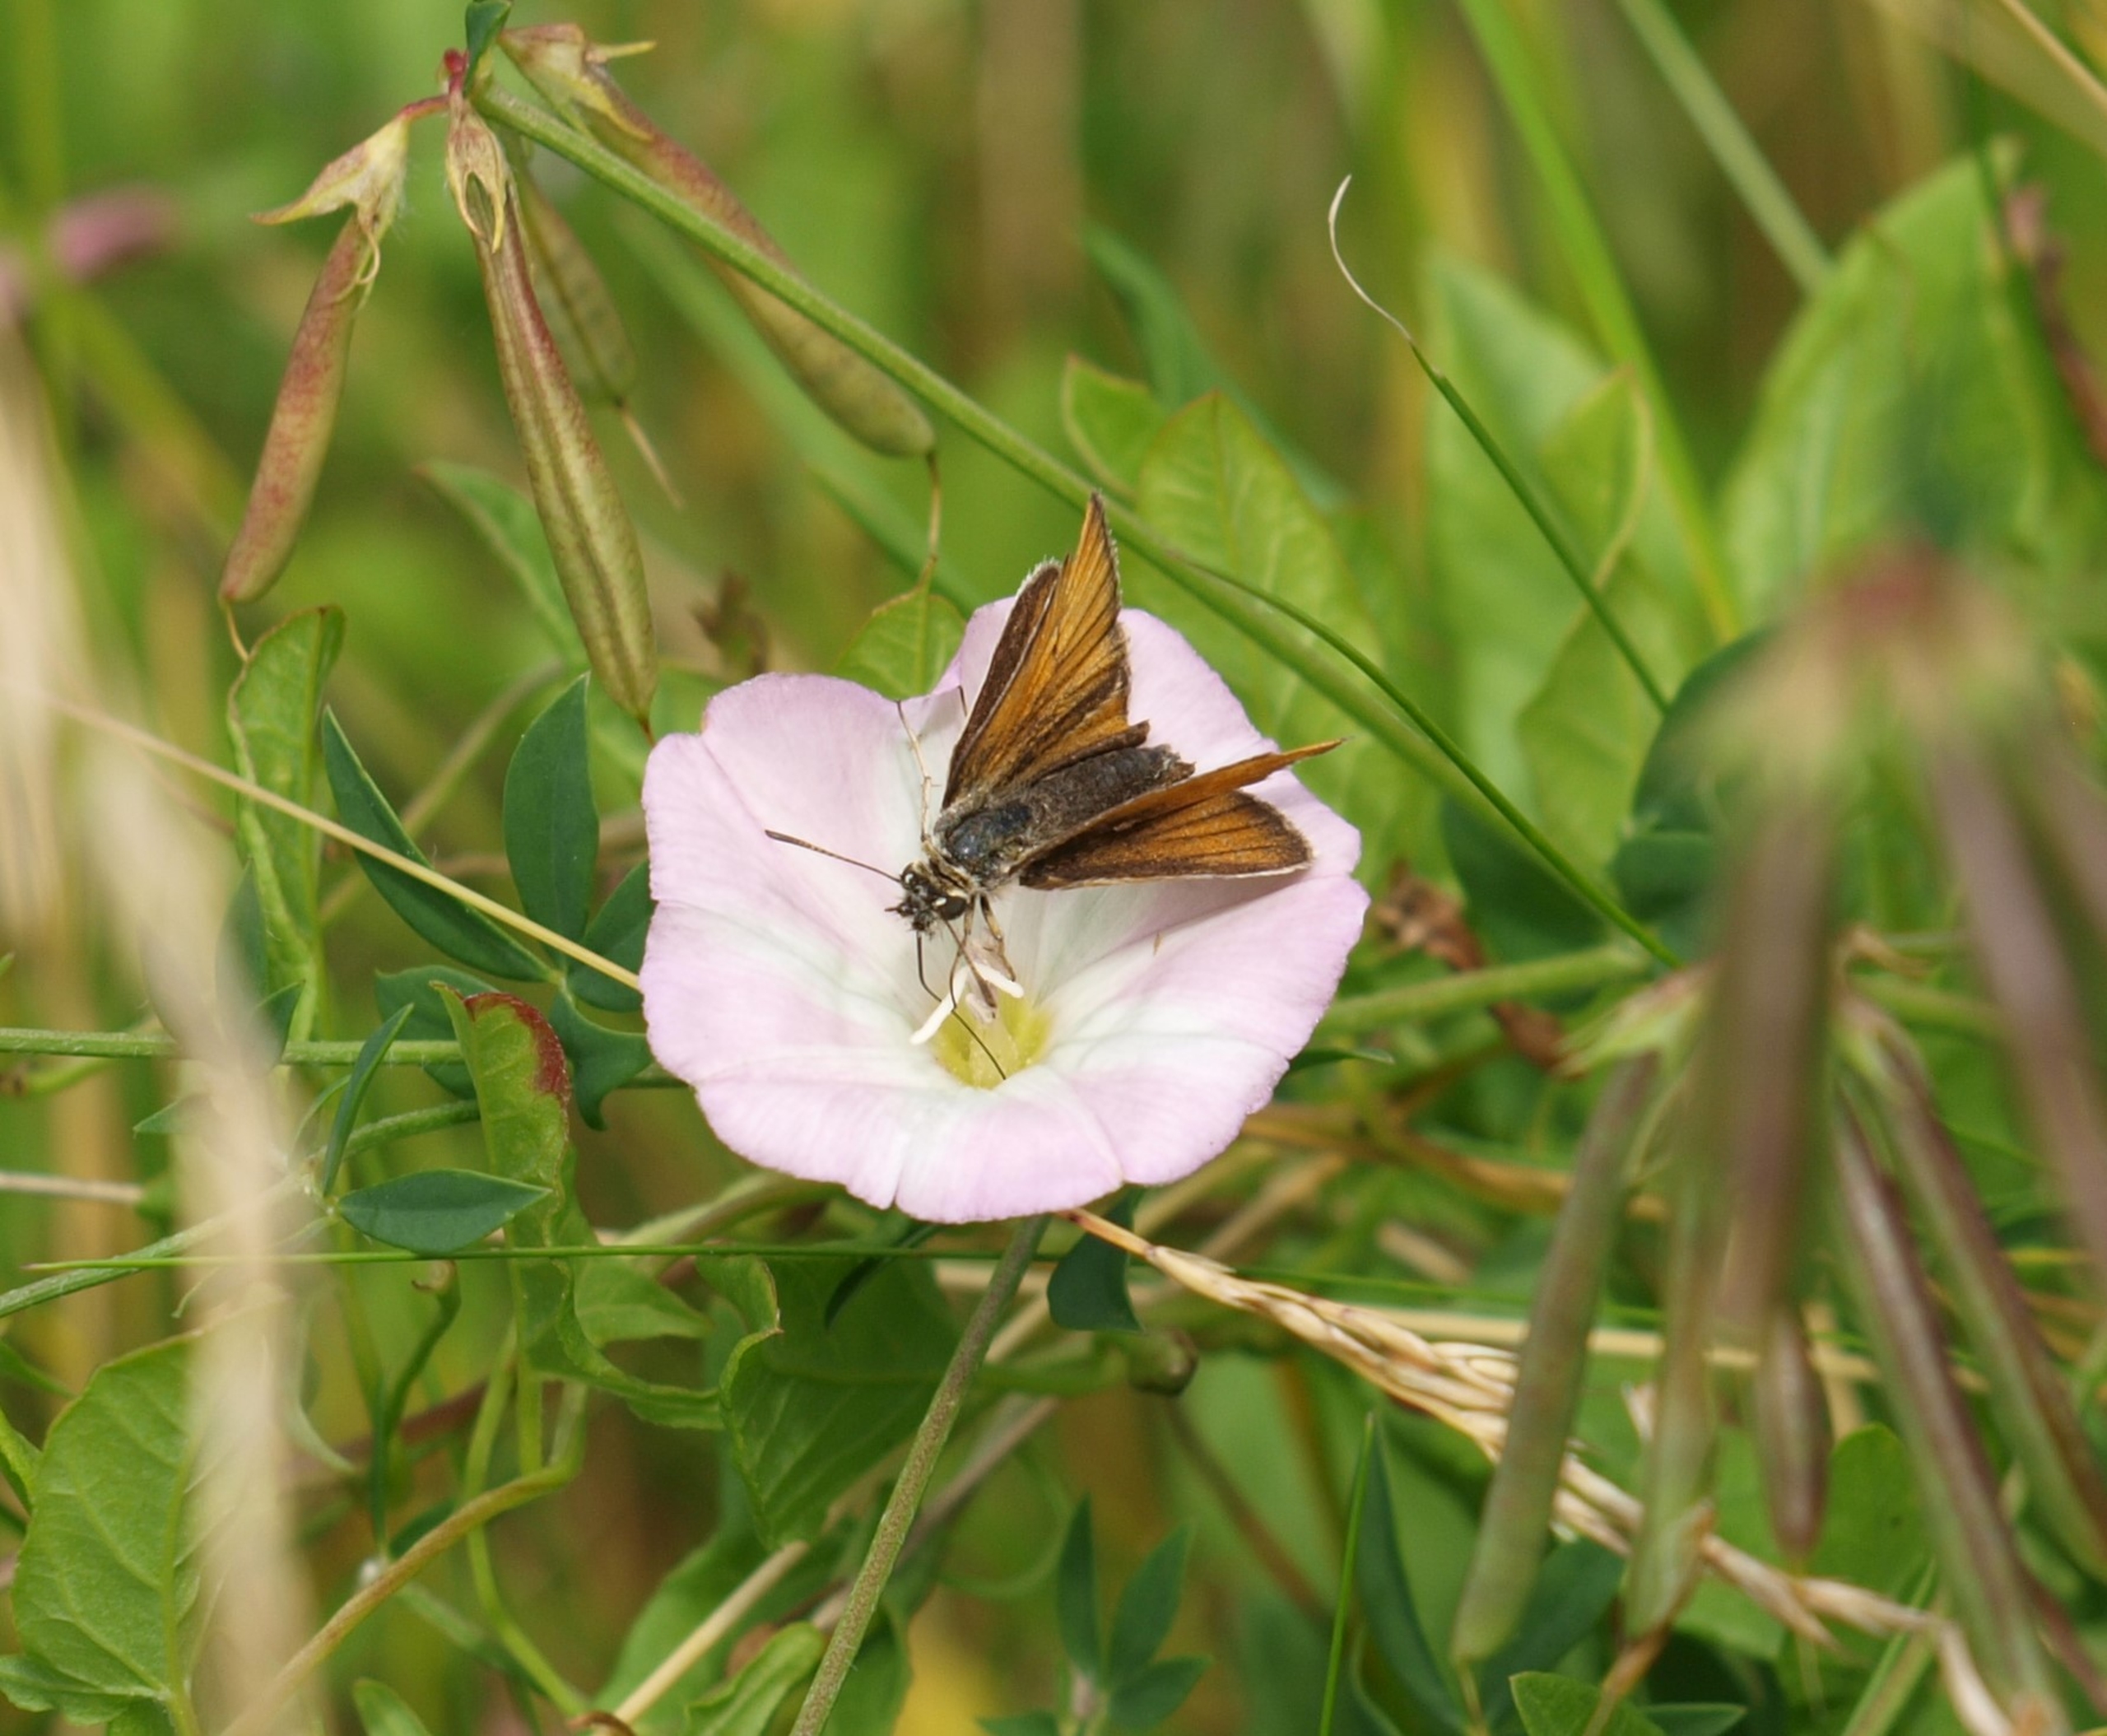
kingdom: Animalia
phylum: Arthropoda
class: Insecta
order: Lepidoptera
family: Hesperiidae
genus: Thymelicus
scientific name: Thymelicus lineola
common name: Stregbredpande
